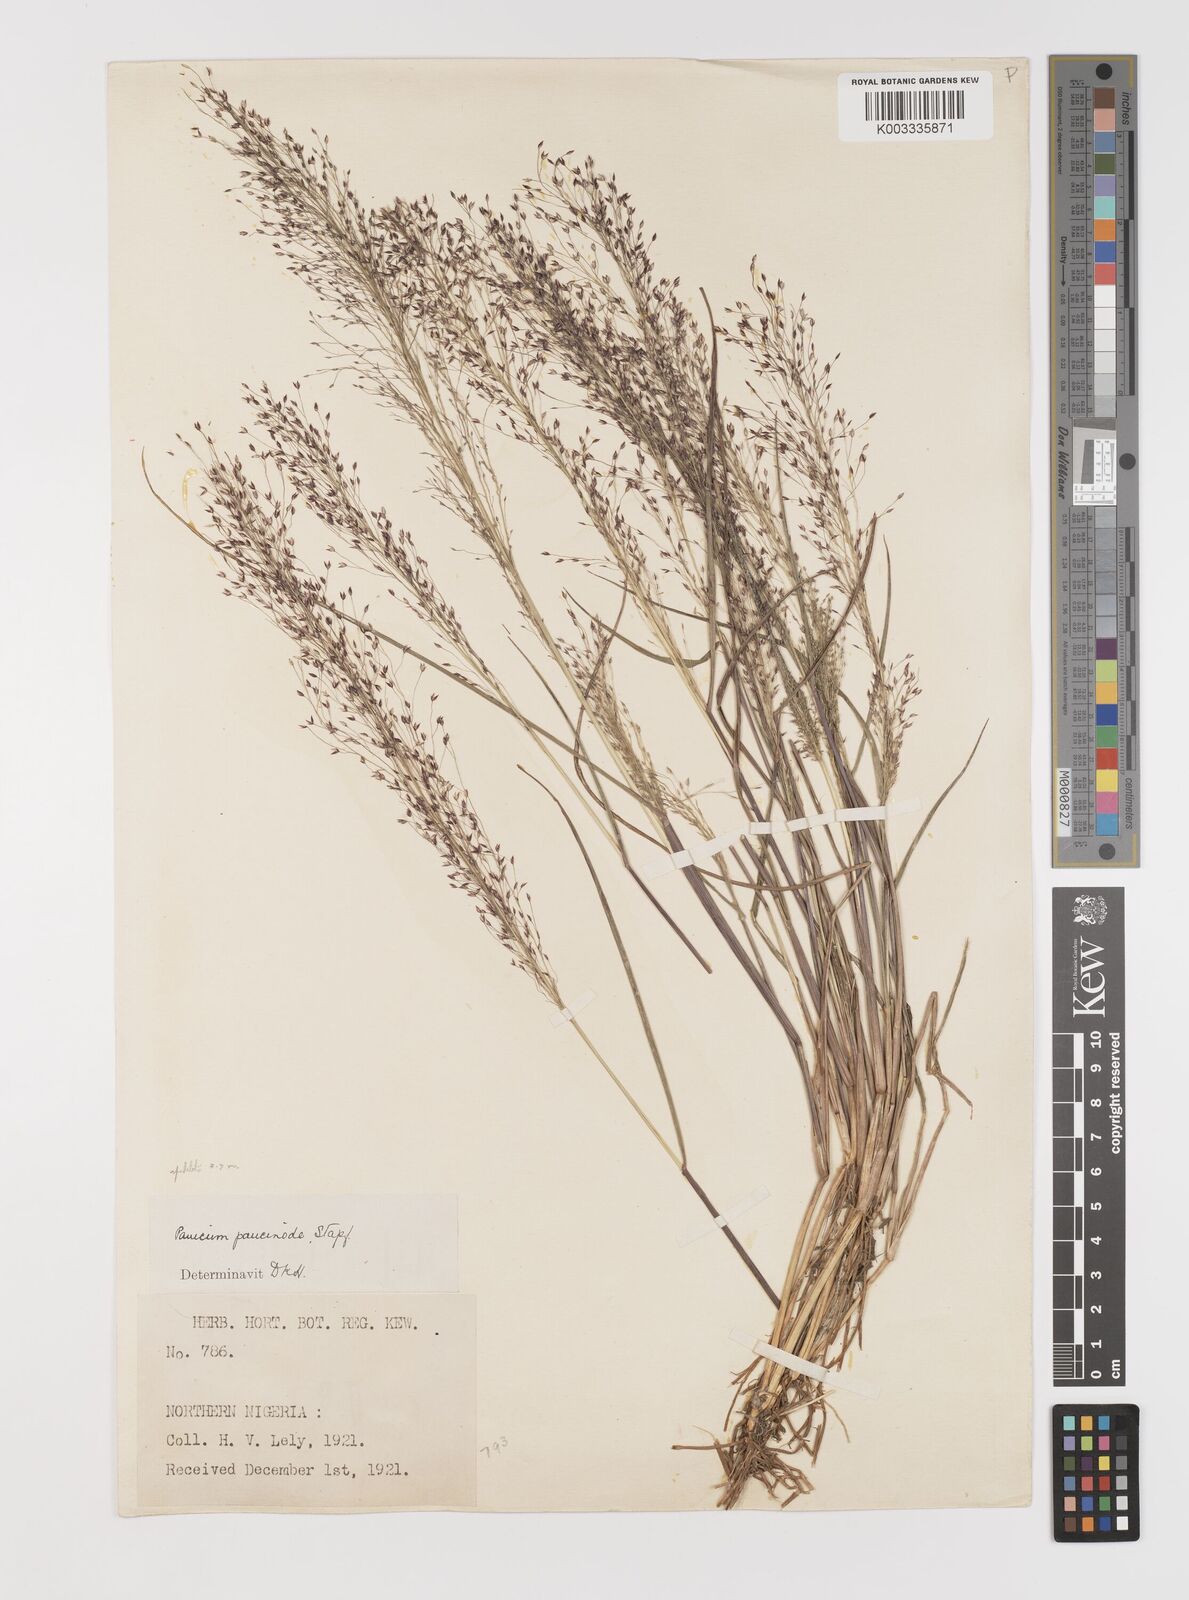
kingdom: Plantae
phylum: Tracheophyta
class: Liliopsida
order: Poales
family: Poaceae
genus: Panicum
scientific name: Panicum paucinode
